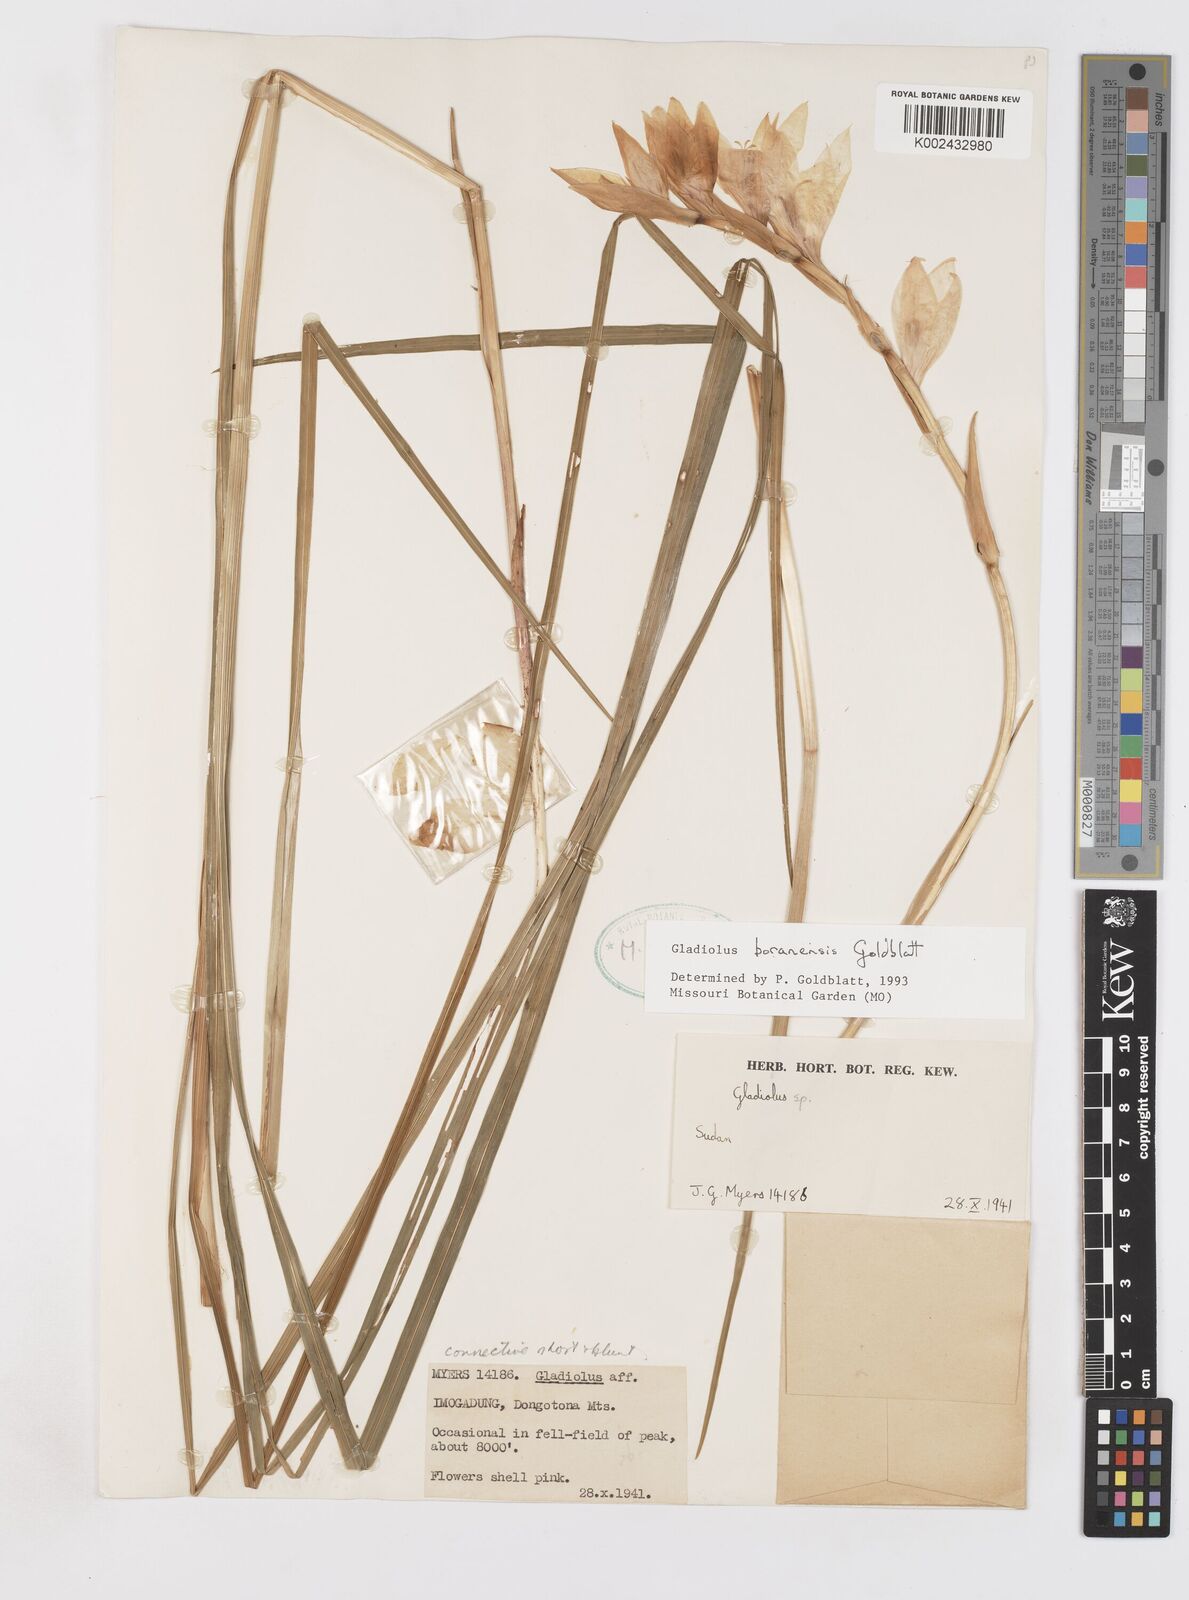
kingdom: Plantae
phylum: Tracheophyta
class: Liliopsida
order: Asparagales
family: Iridaceae
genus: Gladiolus
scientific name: Gladiolus boranensis
